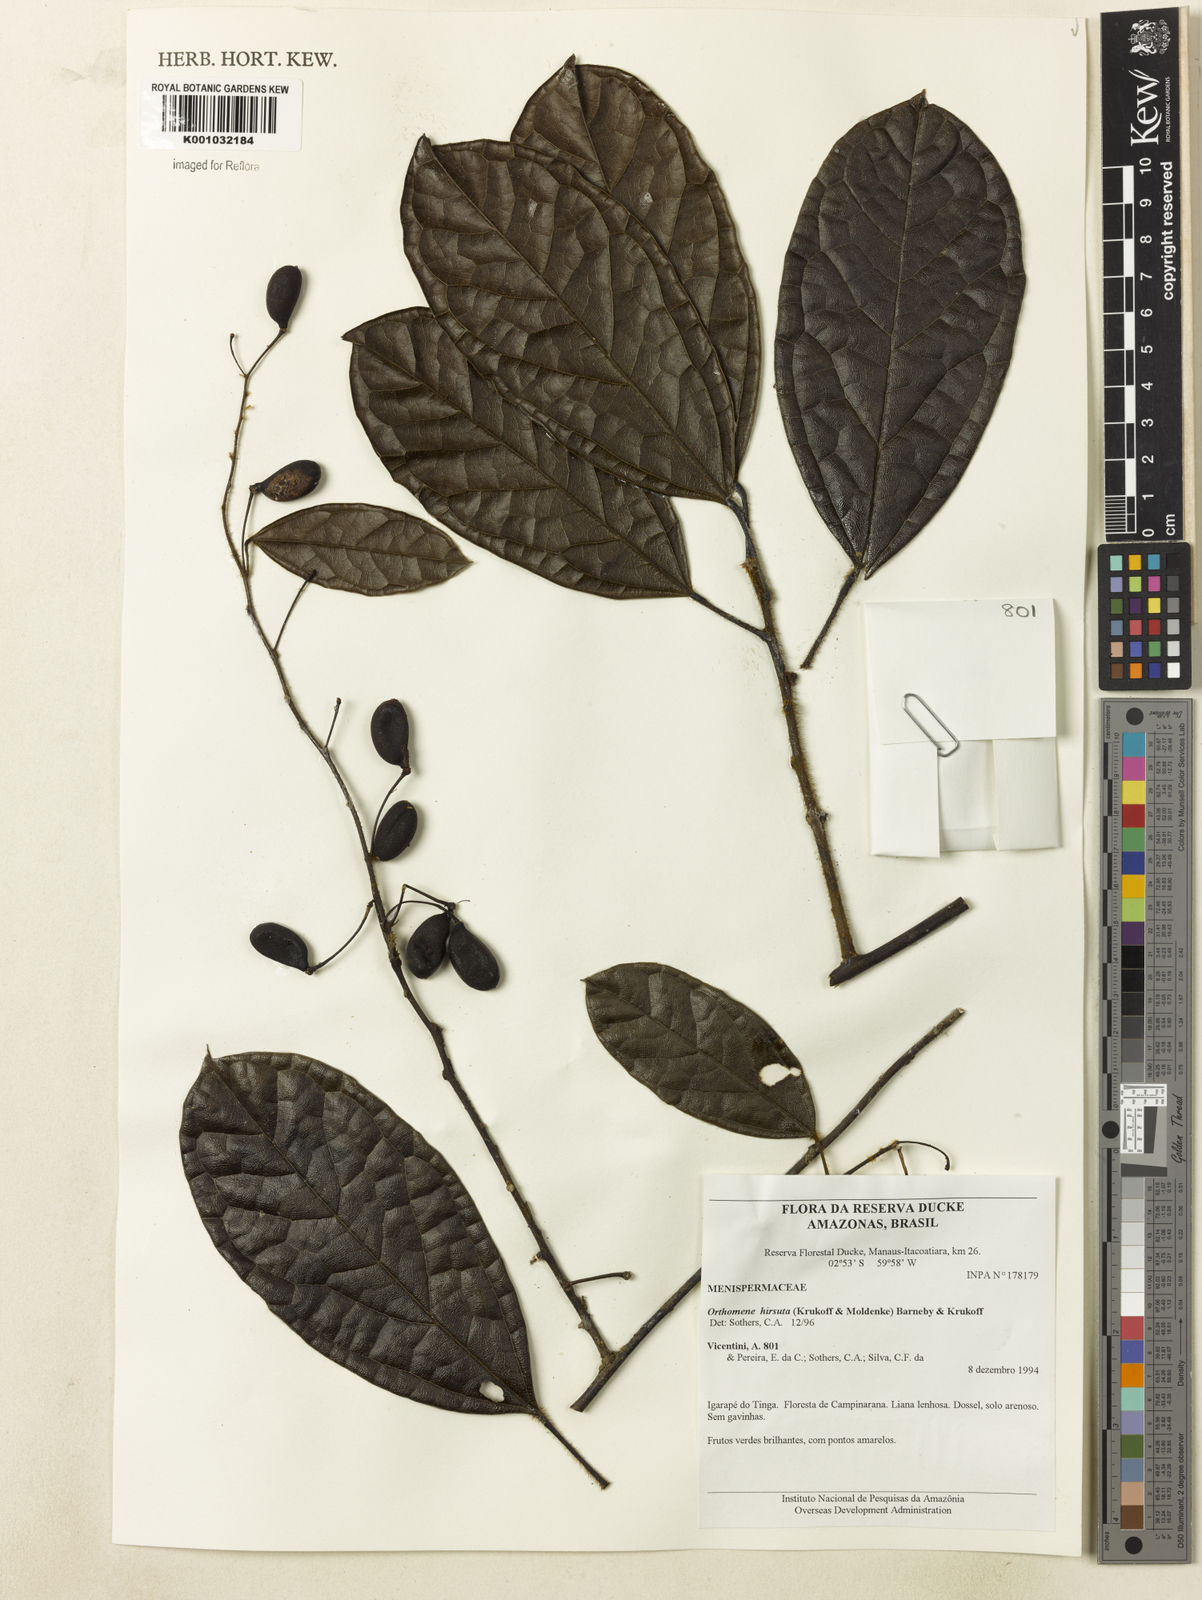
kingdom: Plantae
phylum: Tracheophyta
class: Magnoliopsida
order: Ranunculales
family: Menispermaceae
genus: Orthomene
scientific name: Orthomene hirsuta
